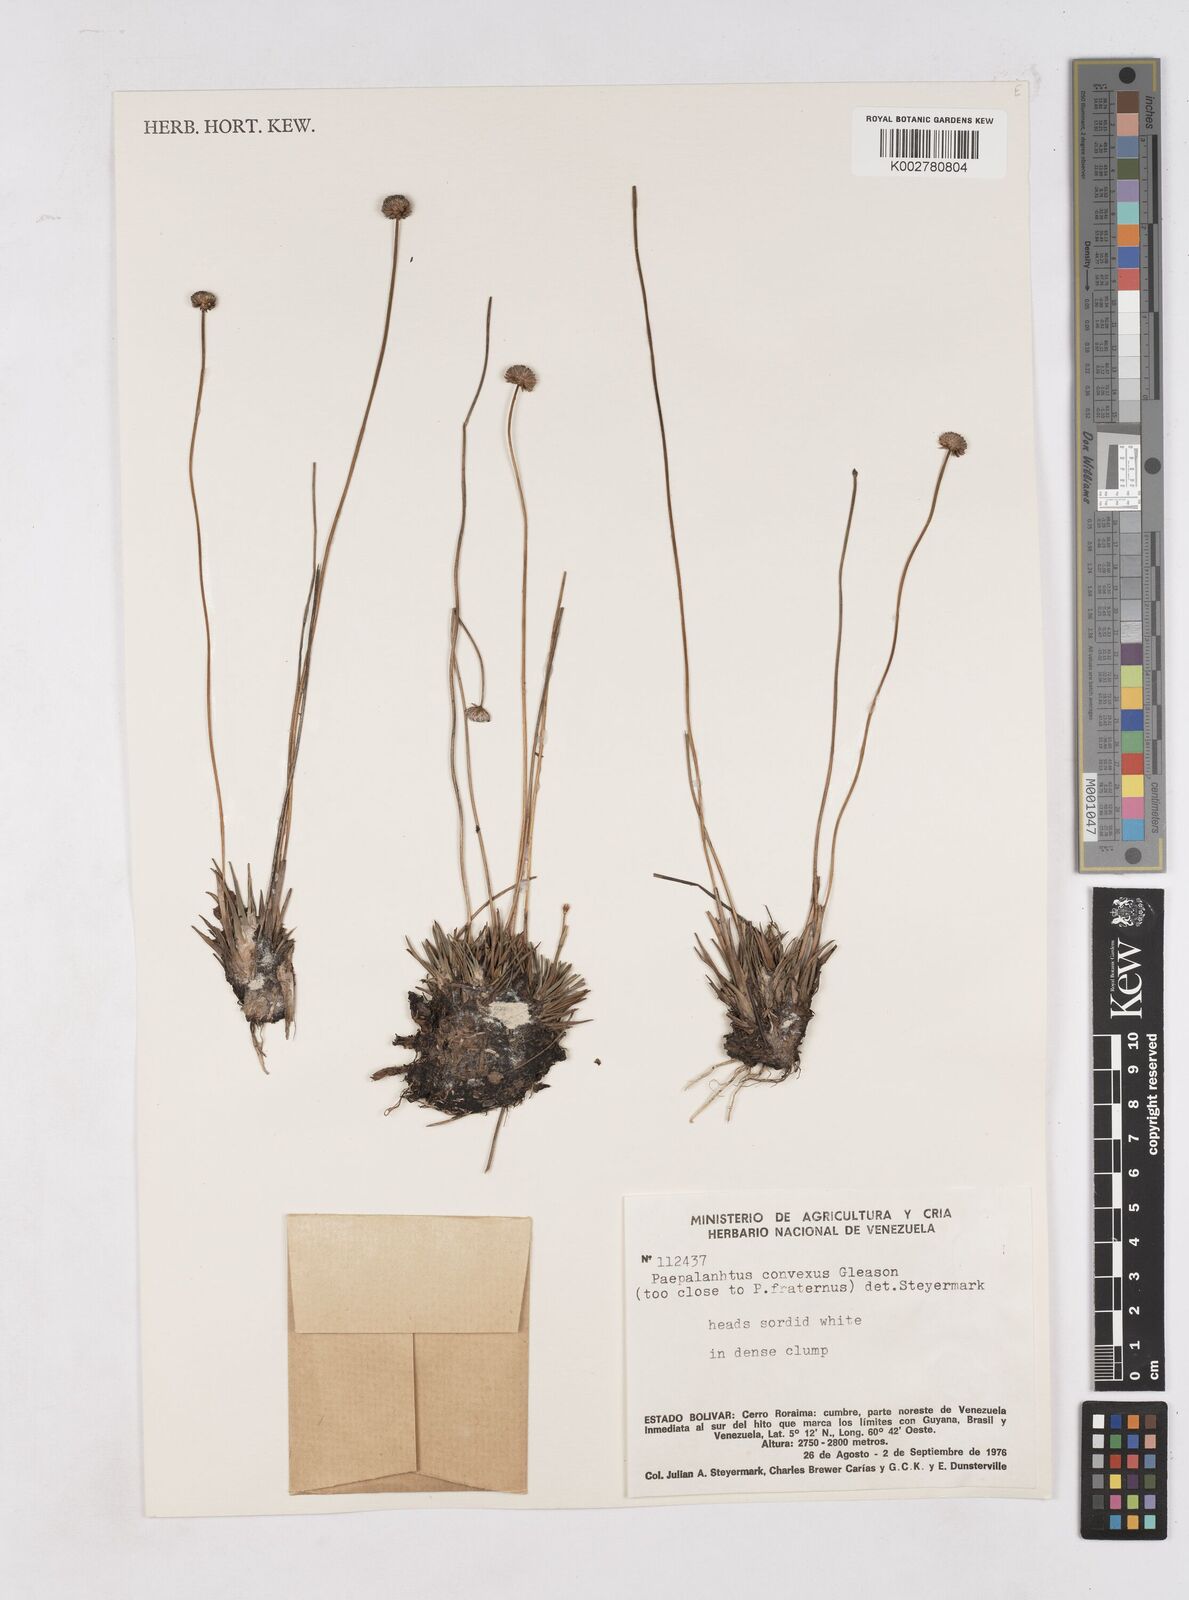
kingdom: Plantae
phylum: Tracheophyta
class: Liliopsida
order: Poales
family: Eriocaulaceae
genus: Paepalanthus
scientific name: Paepalanthus convexus
